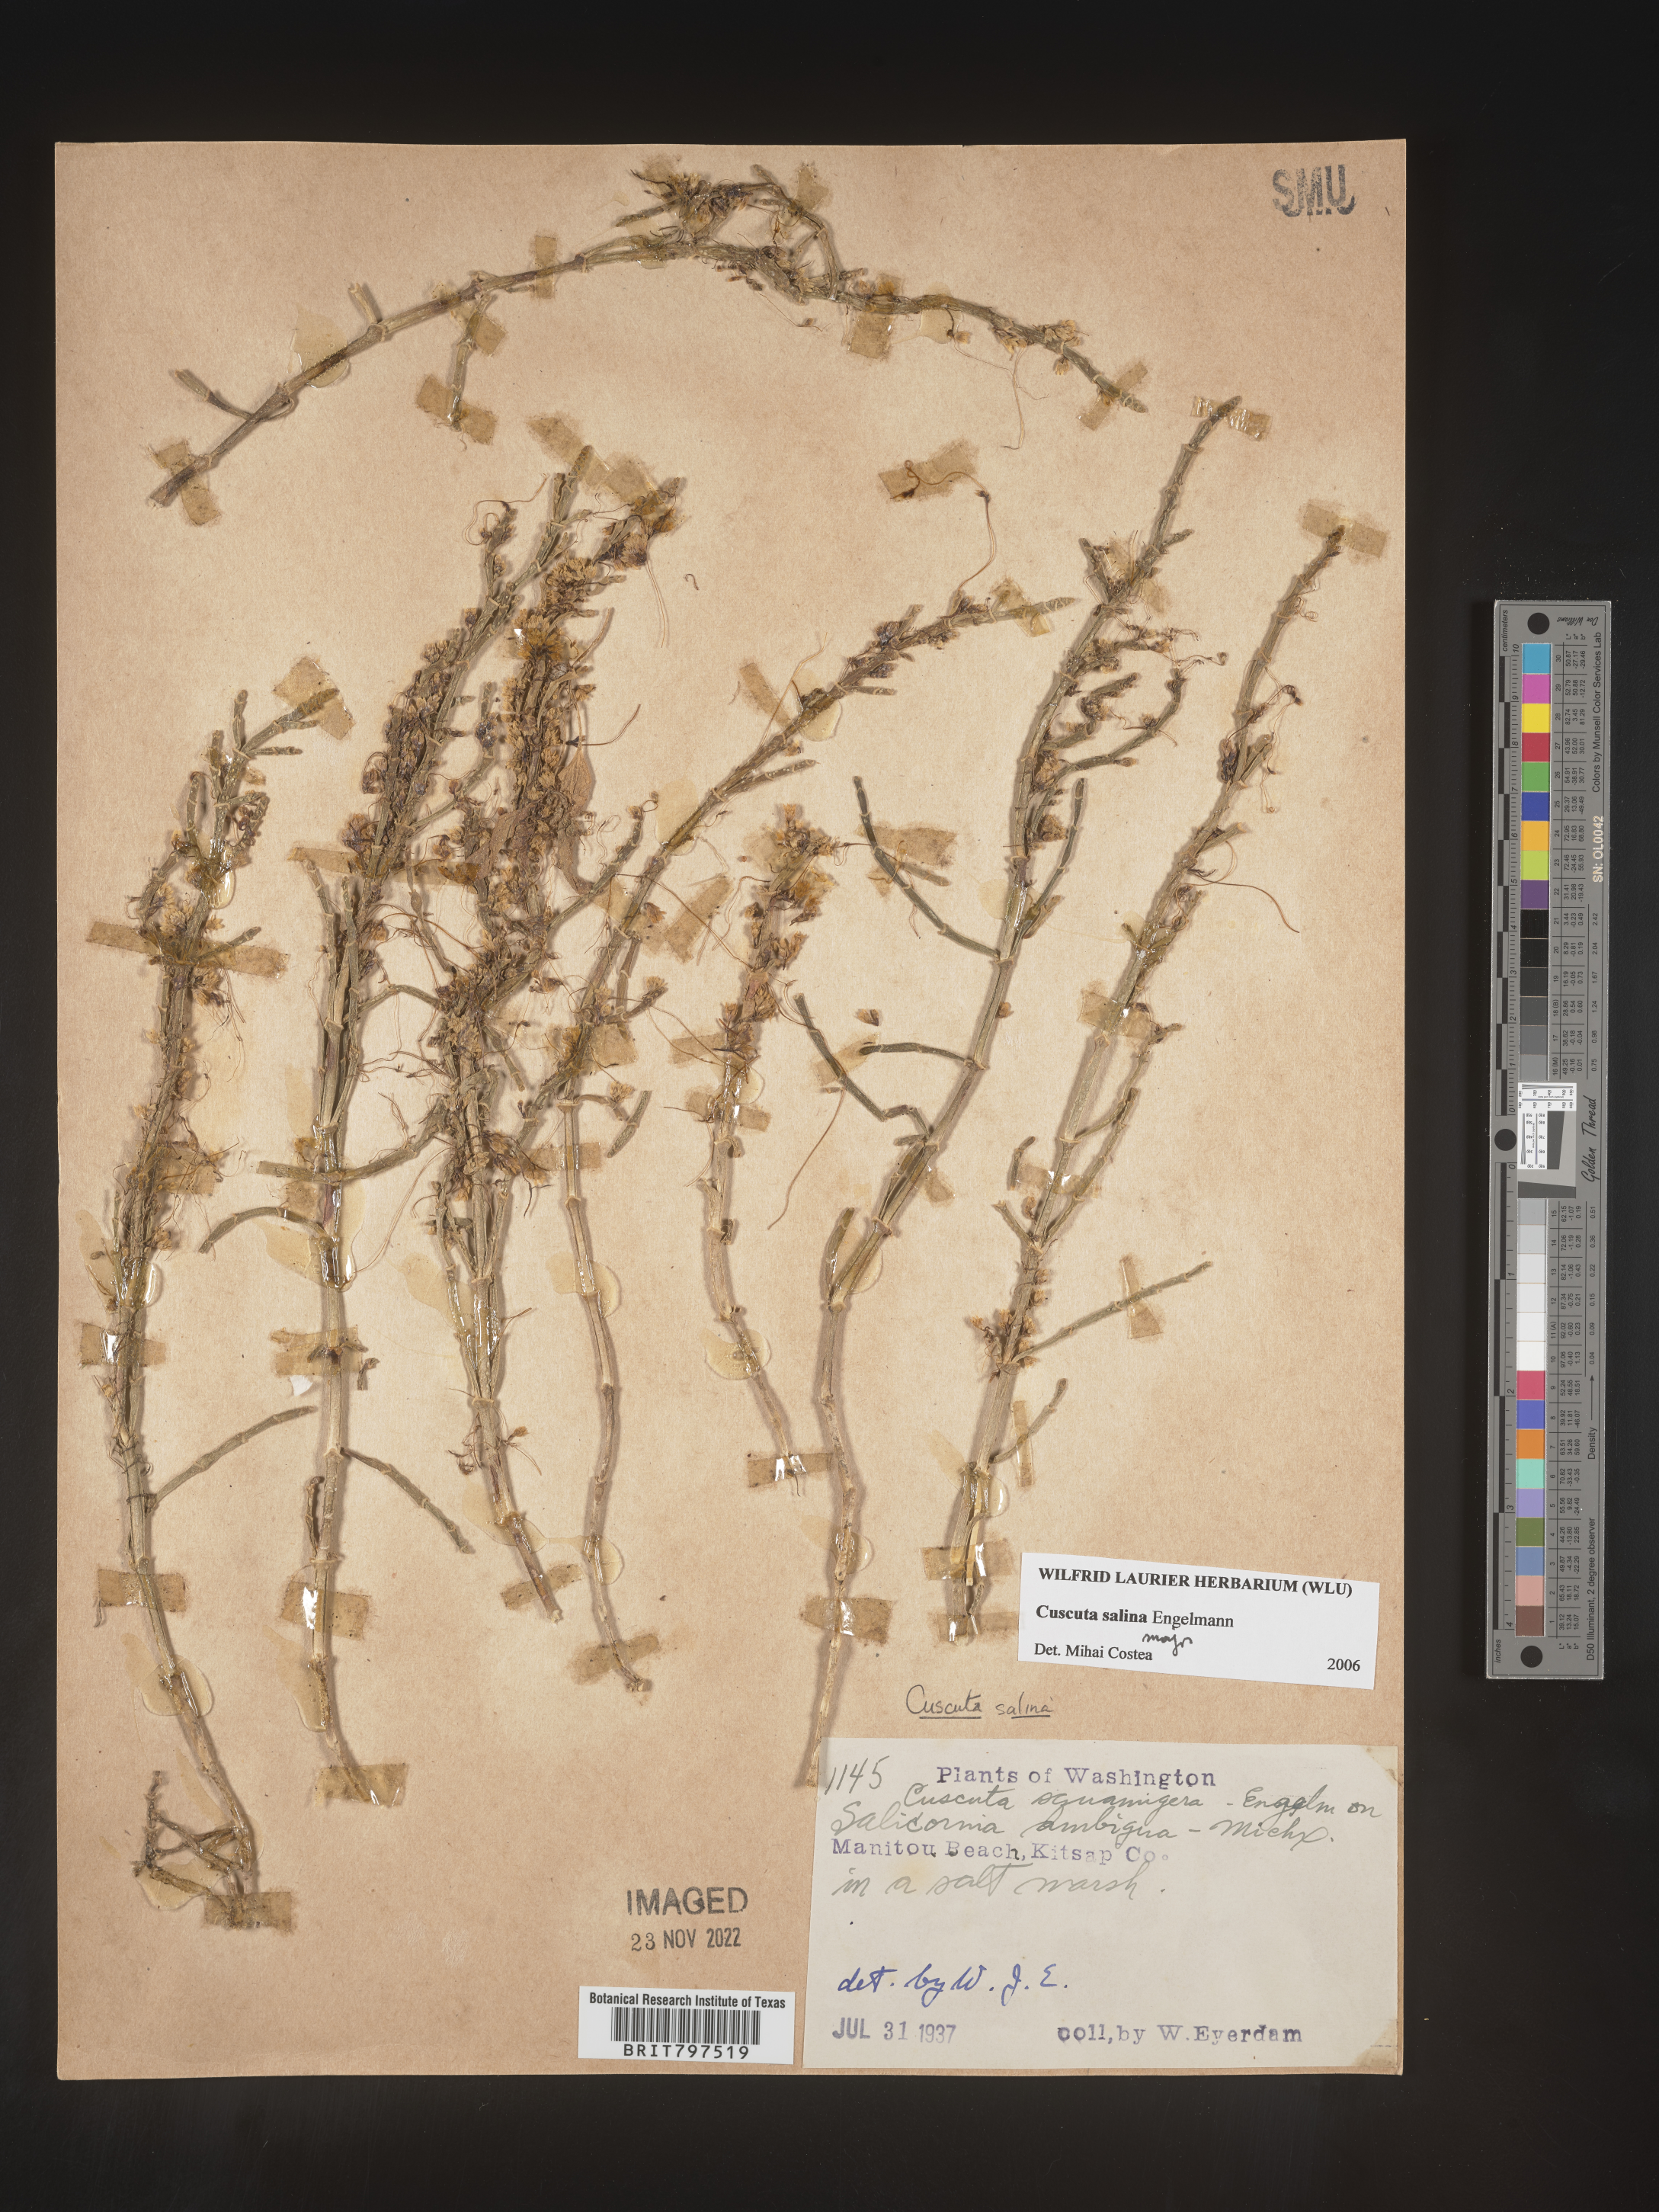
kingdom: Plantae
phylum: Tracheophyta
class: Magnoliopsida
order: Solanales
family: Convolvulaceae
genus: Cuscuta
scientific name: Cuscuta salina
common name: Goldenthread
